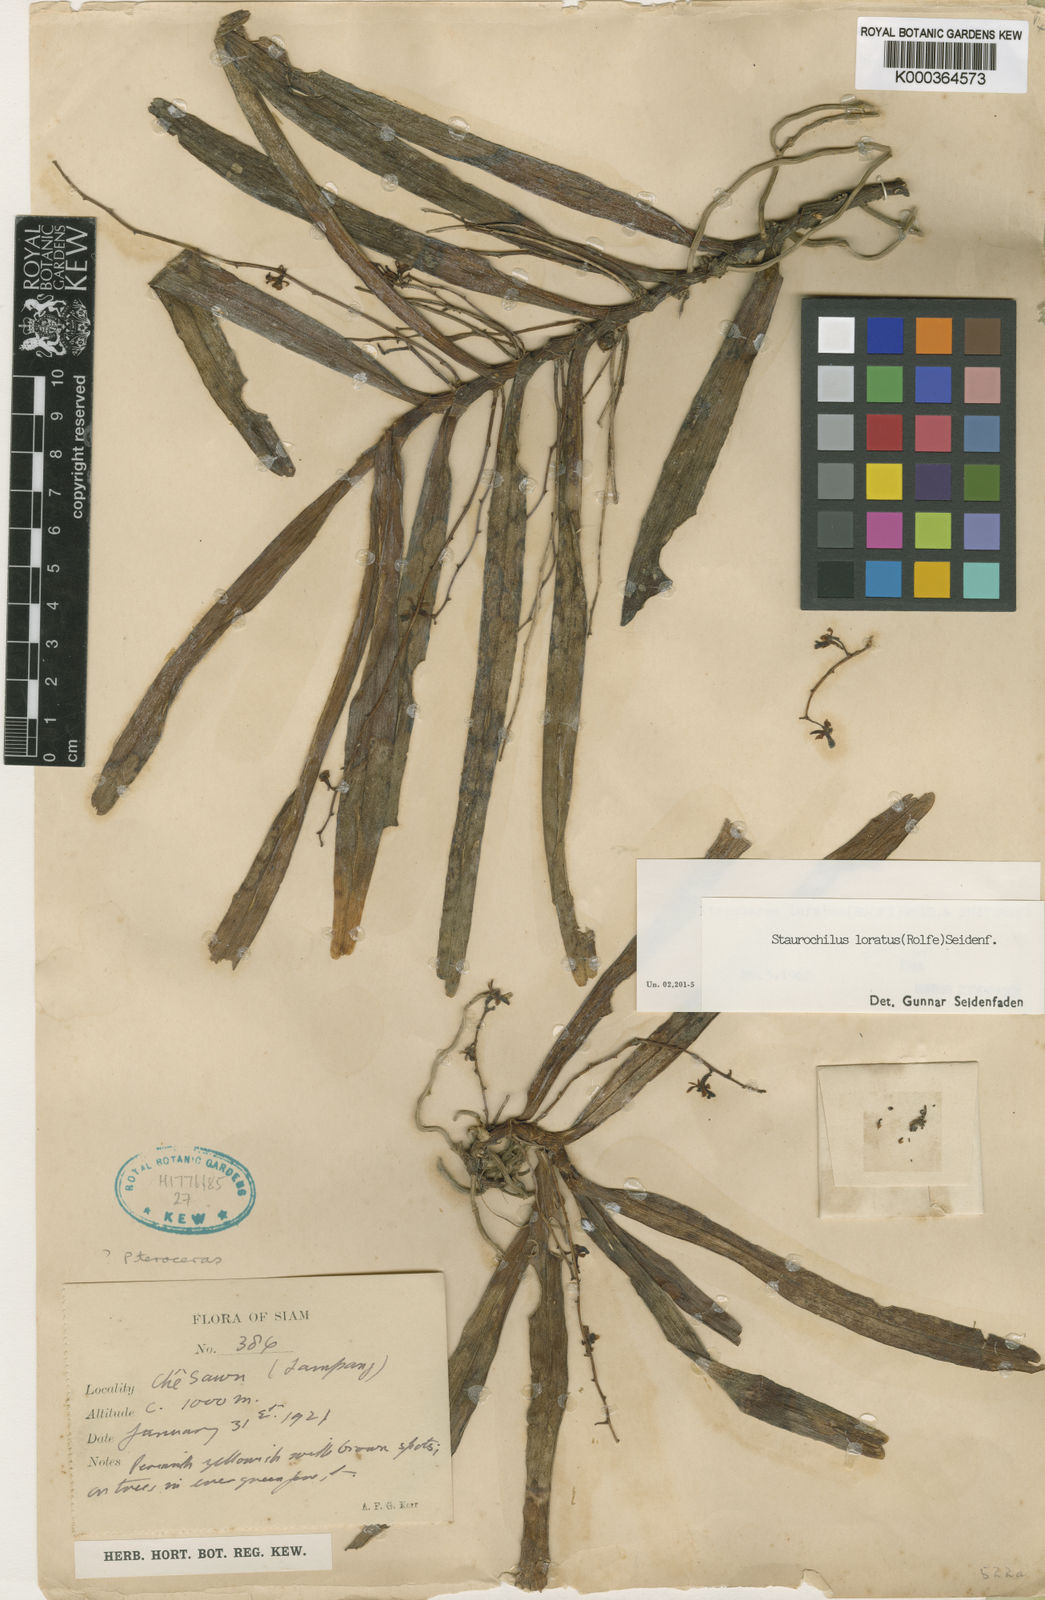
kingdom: Plantae
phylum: Tracheophyta
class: Liliopsida
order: Asparagales
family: Orchidaceae
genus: Trichoglottis
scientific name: Trichoglottis lorata
